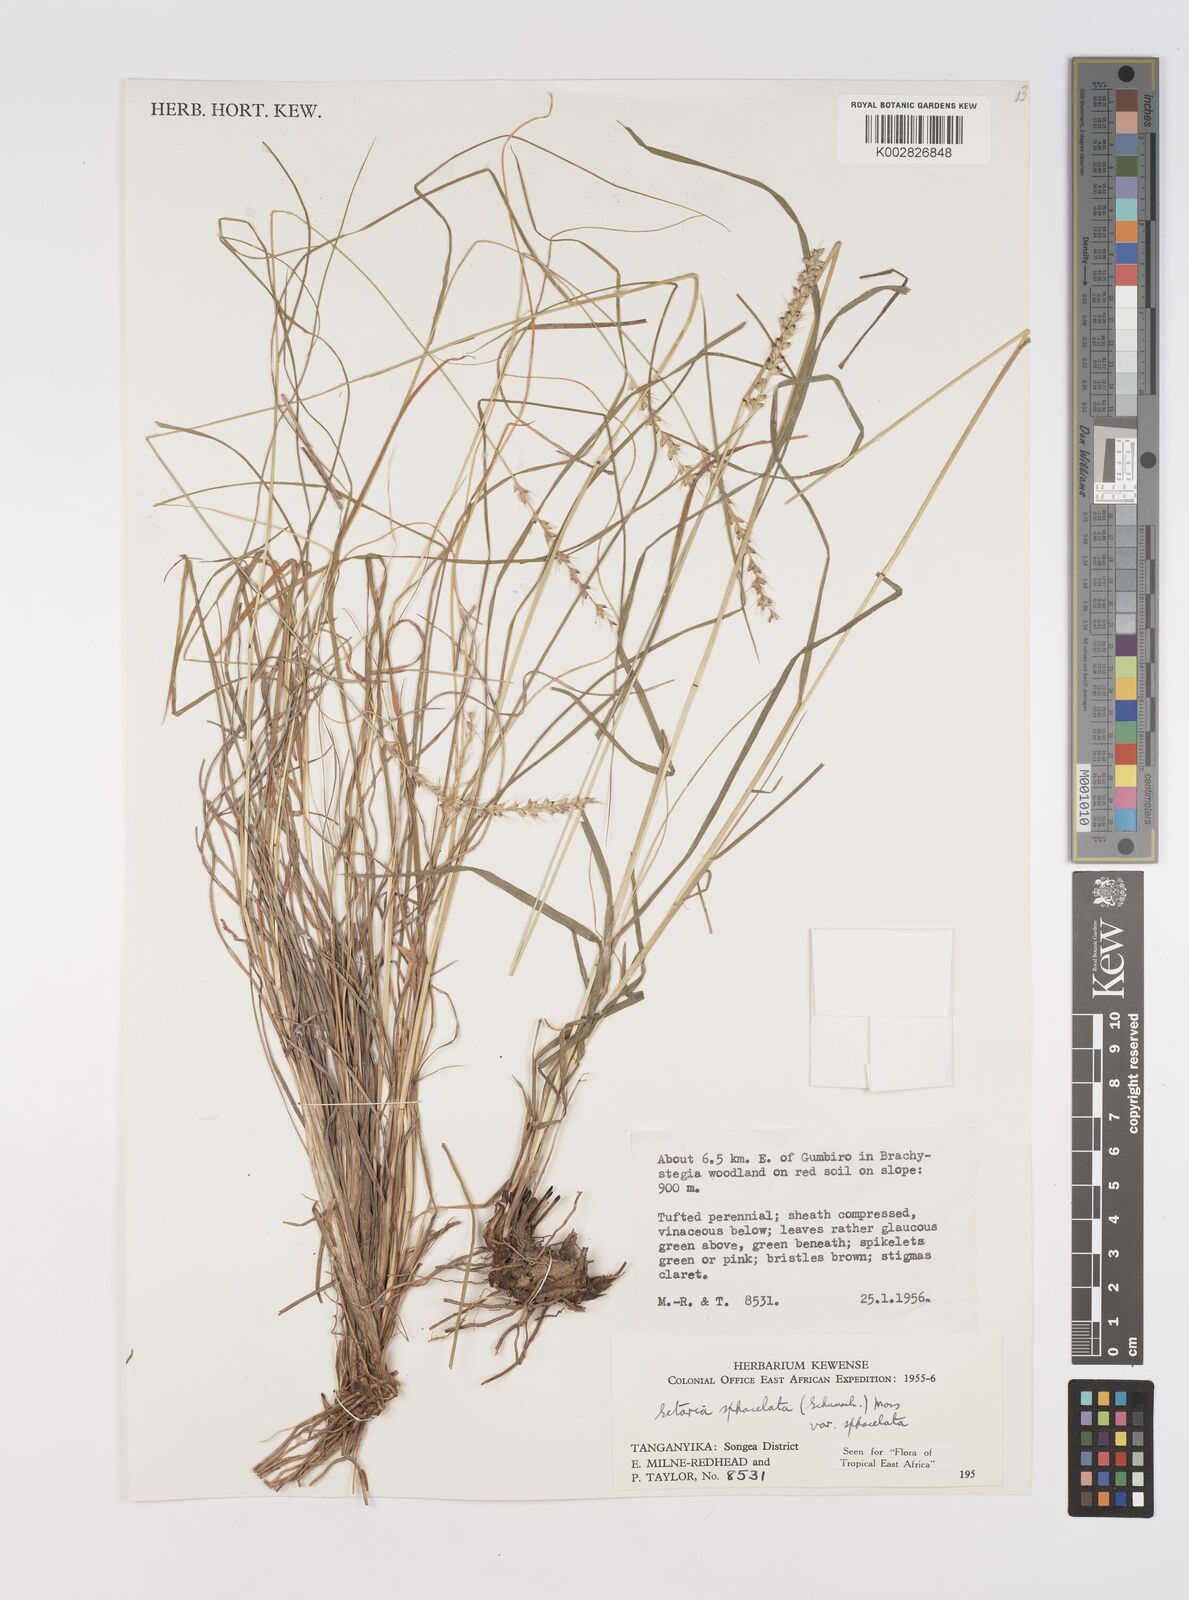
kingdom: Plantae
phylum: Tracheophyta
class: Liliopsida
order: Poales
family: Poaceae
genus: Setaria
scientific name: Setaria sphacelata
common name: African bristlegrass
